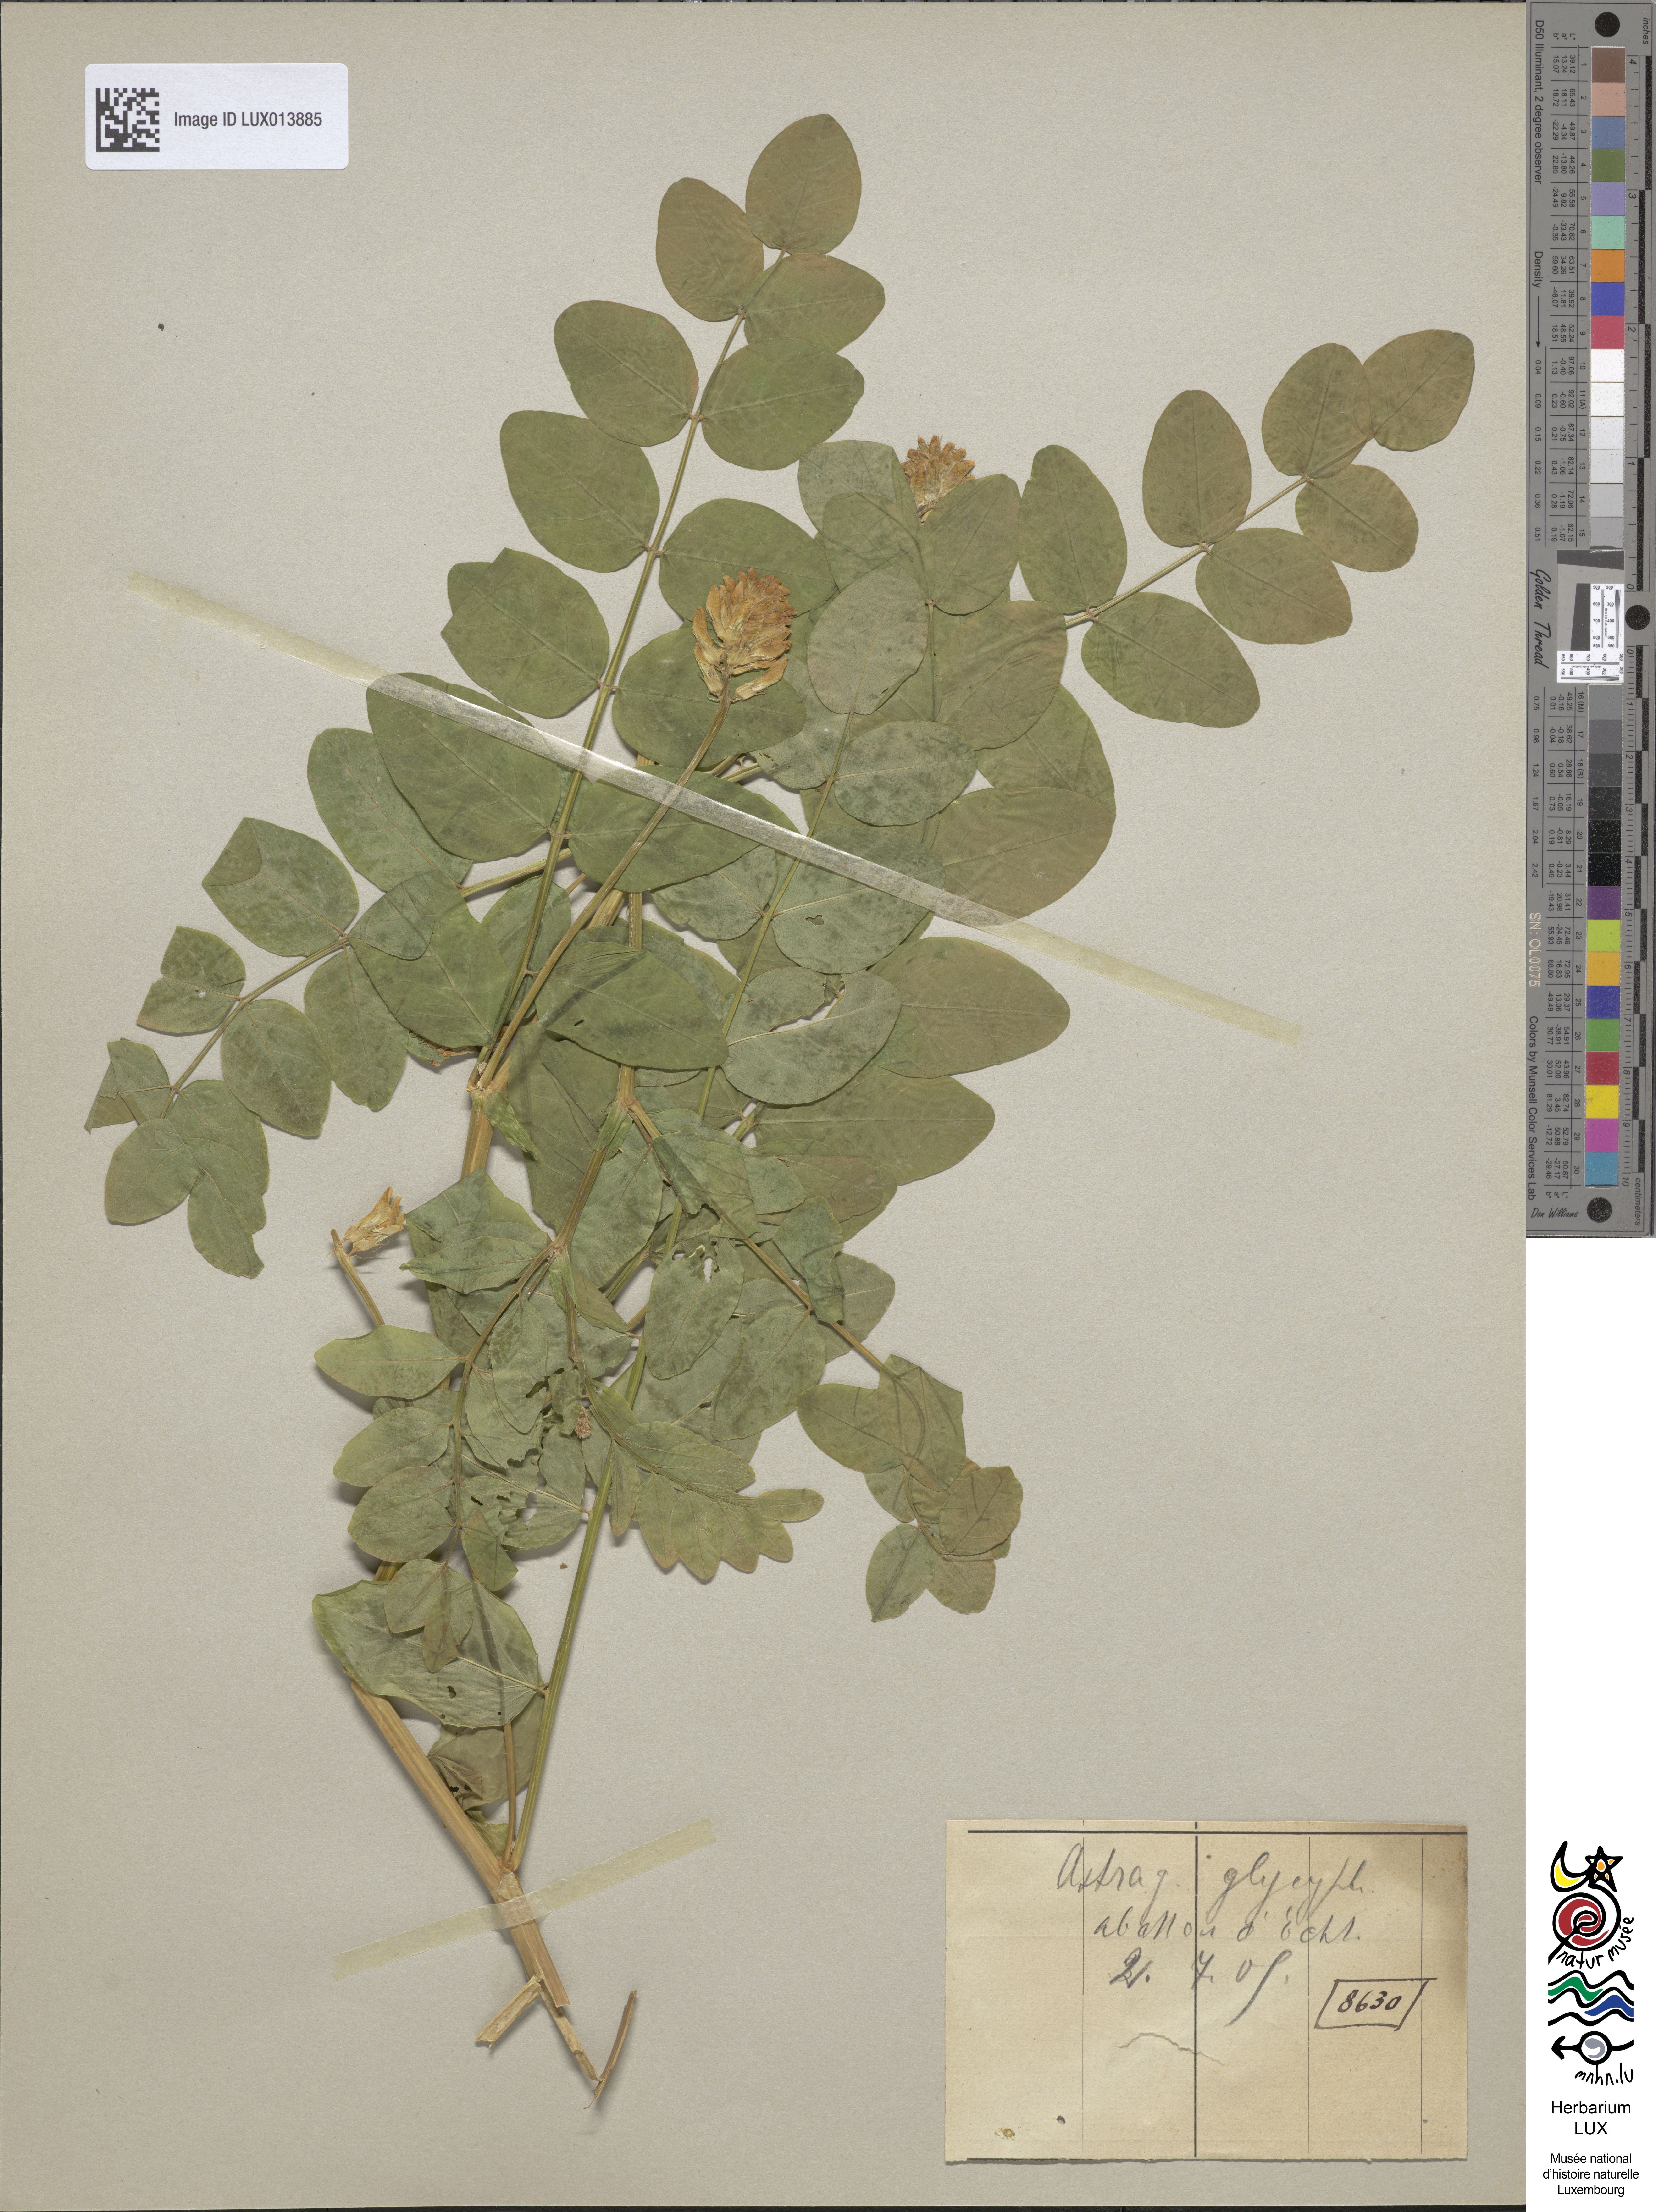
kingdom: Plantae
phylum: Tracheophyta
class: Magnoliopsida
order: Fabales
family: Fabaceae
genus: Astragalus
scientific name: Astragalus glycyphyllos
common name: Wild liquorice
